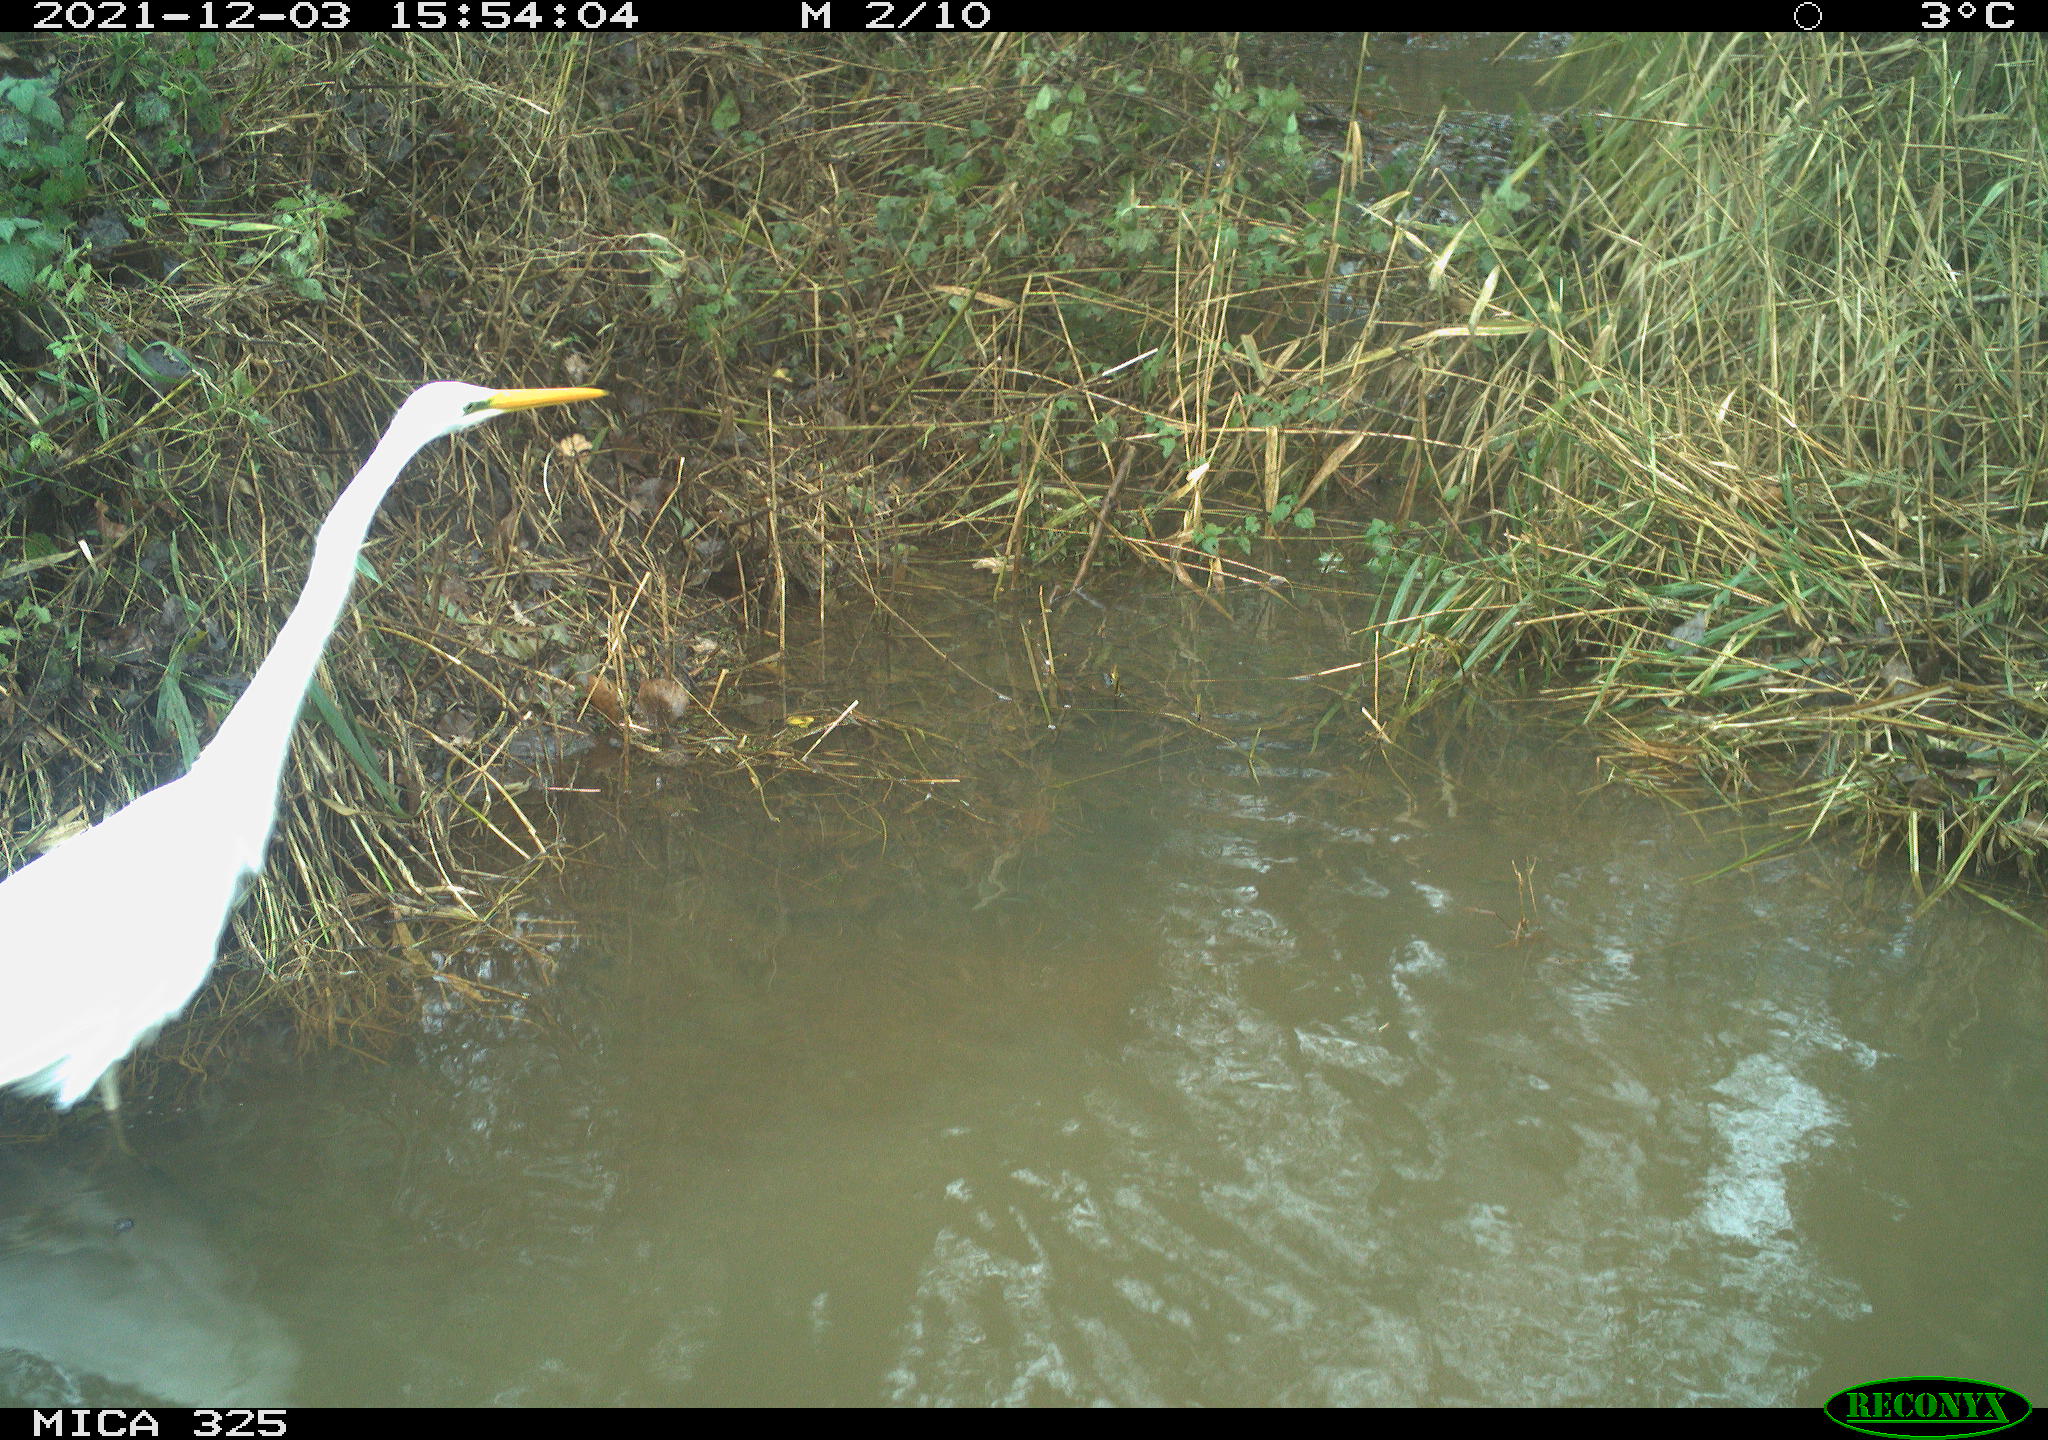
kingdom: Animalia
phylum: Chordata
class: Aves
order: Pelecaniformes
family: Ardeidae
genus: Ardea
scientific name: Ardea alba
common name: Great egret
